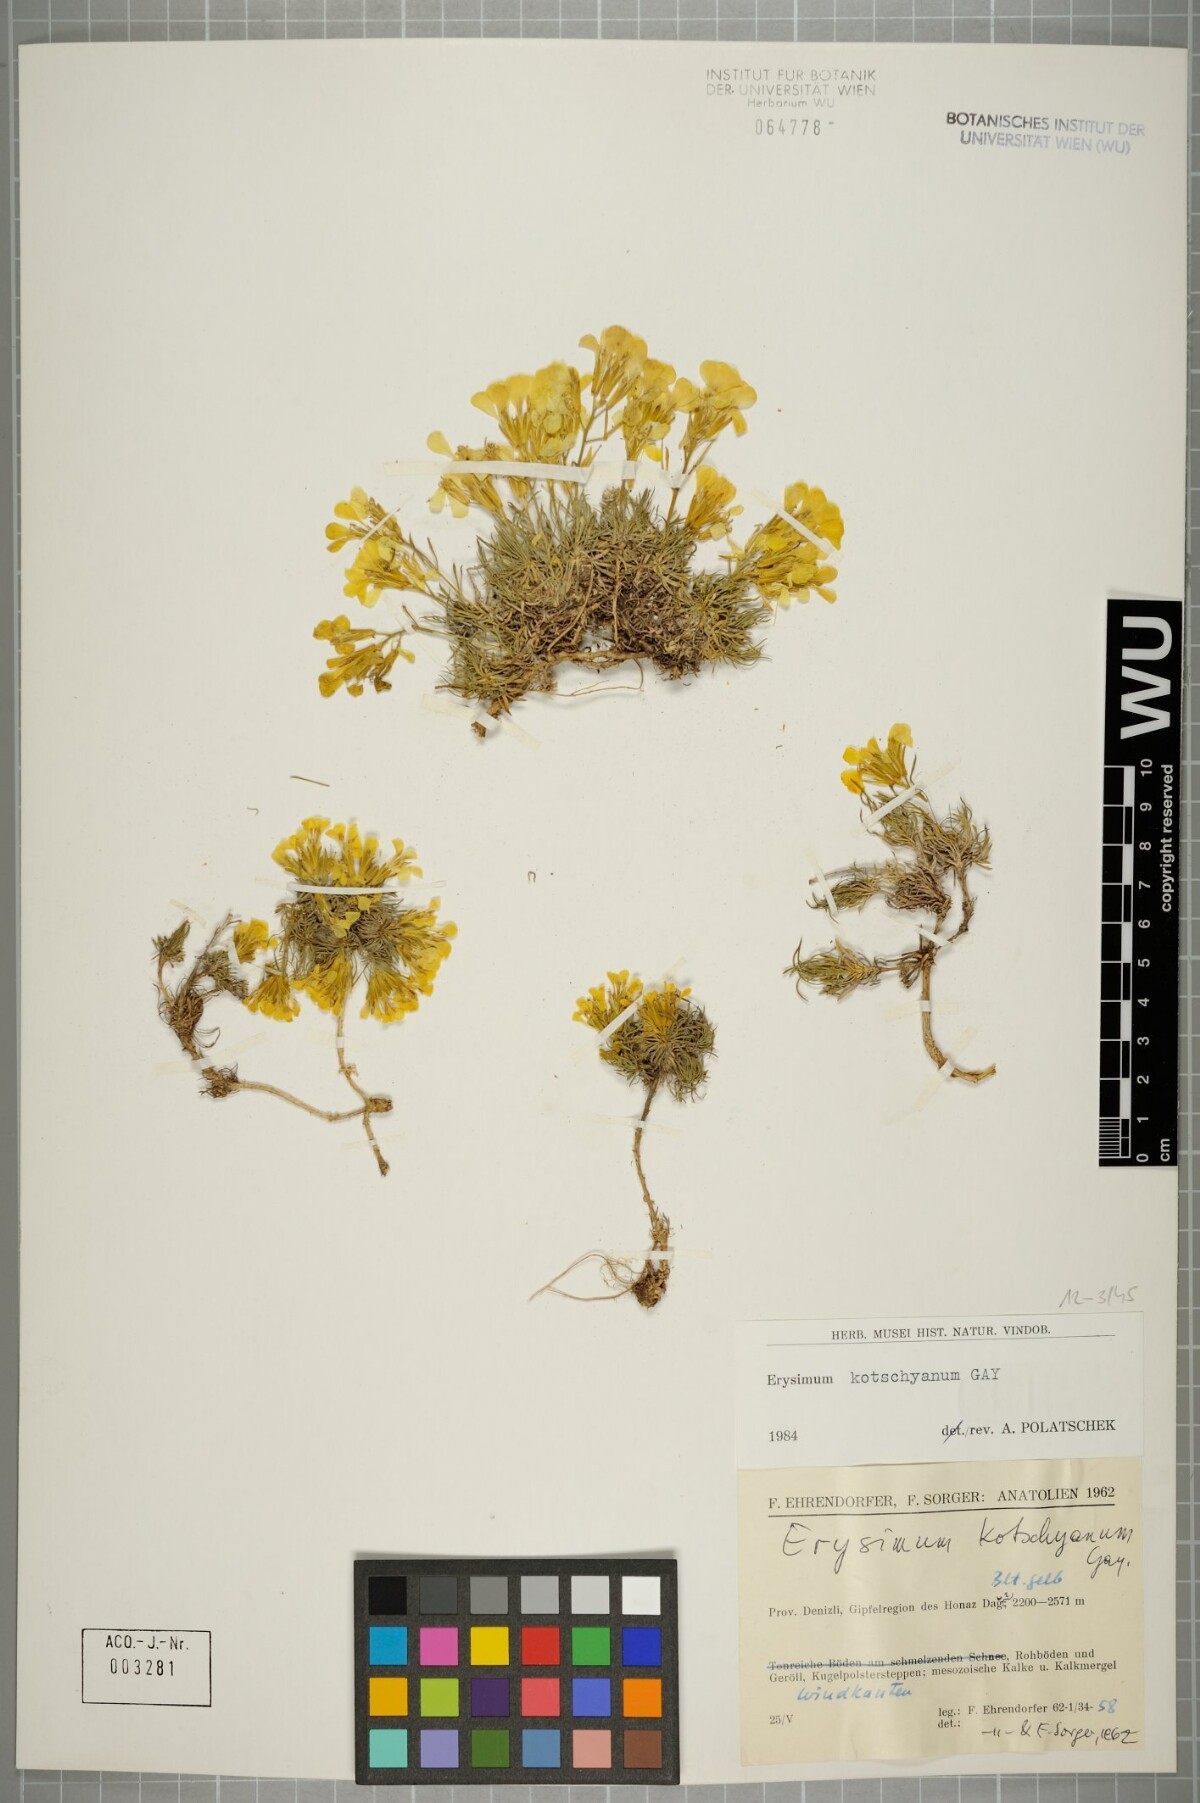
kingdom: Plantae
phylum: Tracheophyta
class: Magnoliopsida
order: Brassicales
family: Brassicaceae
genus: Erysimum
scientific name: Erysimum kotschyanum
